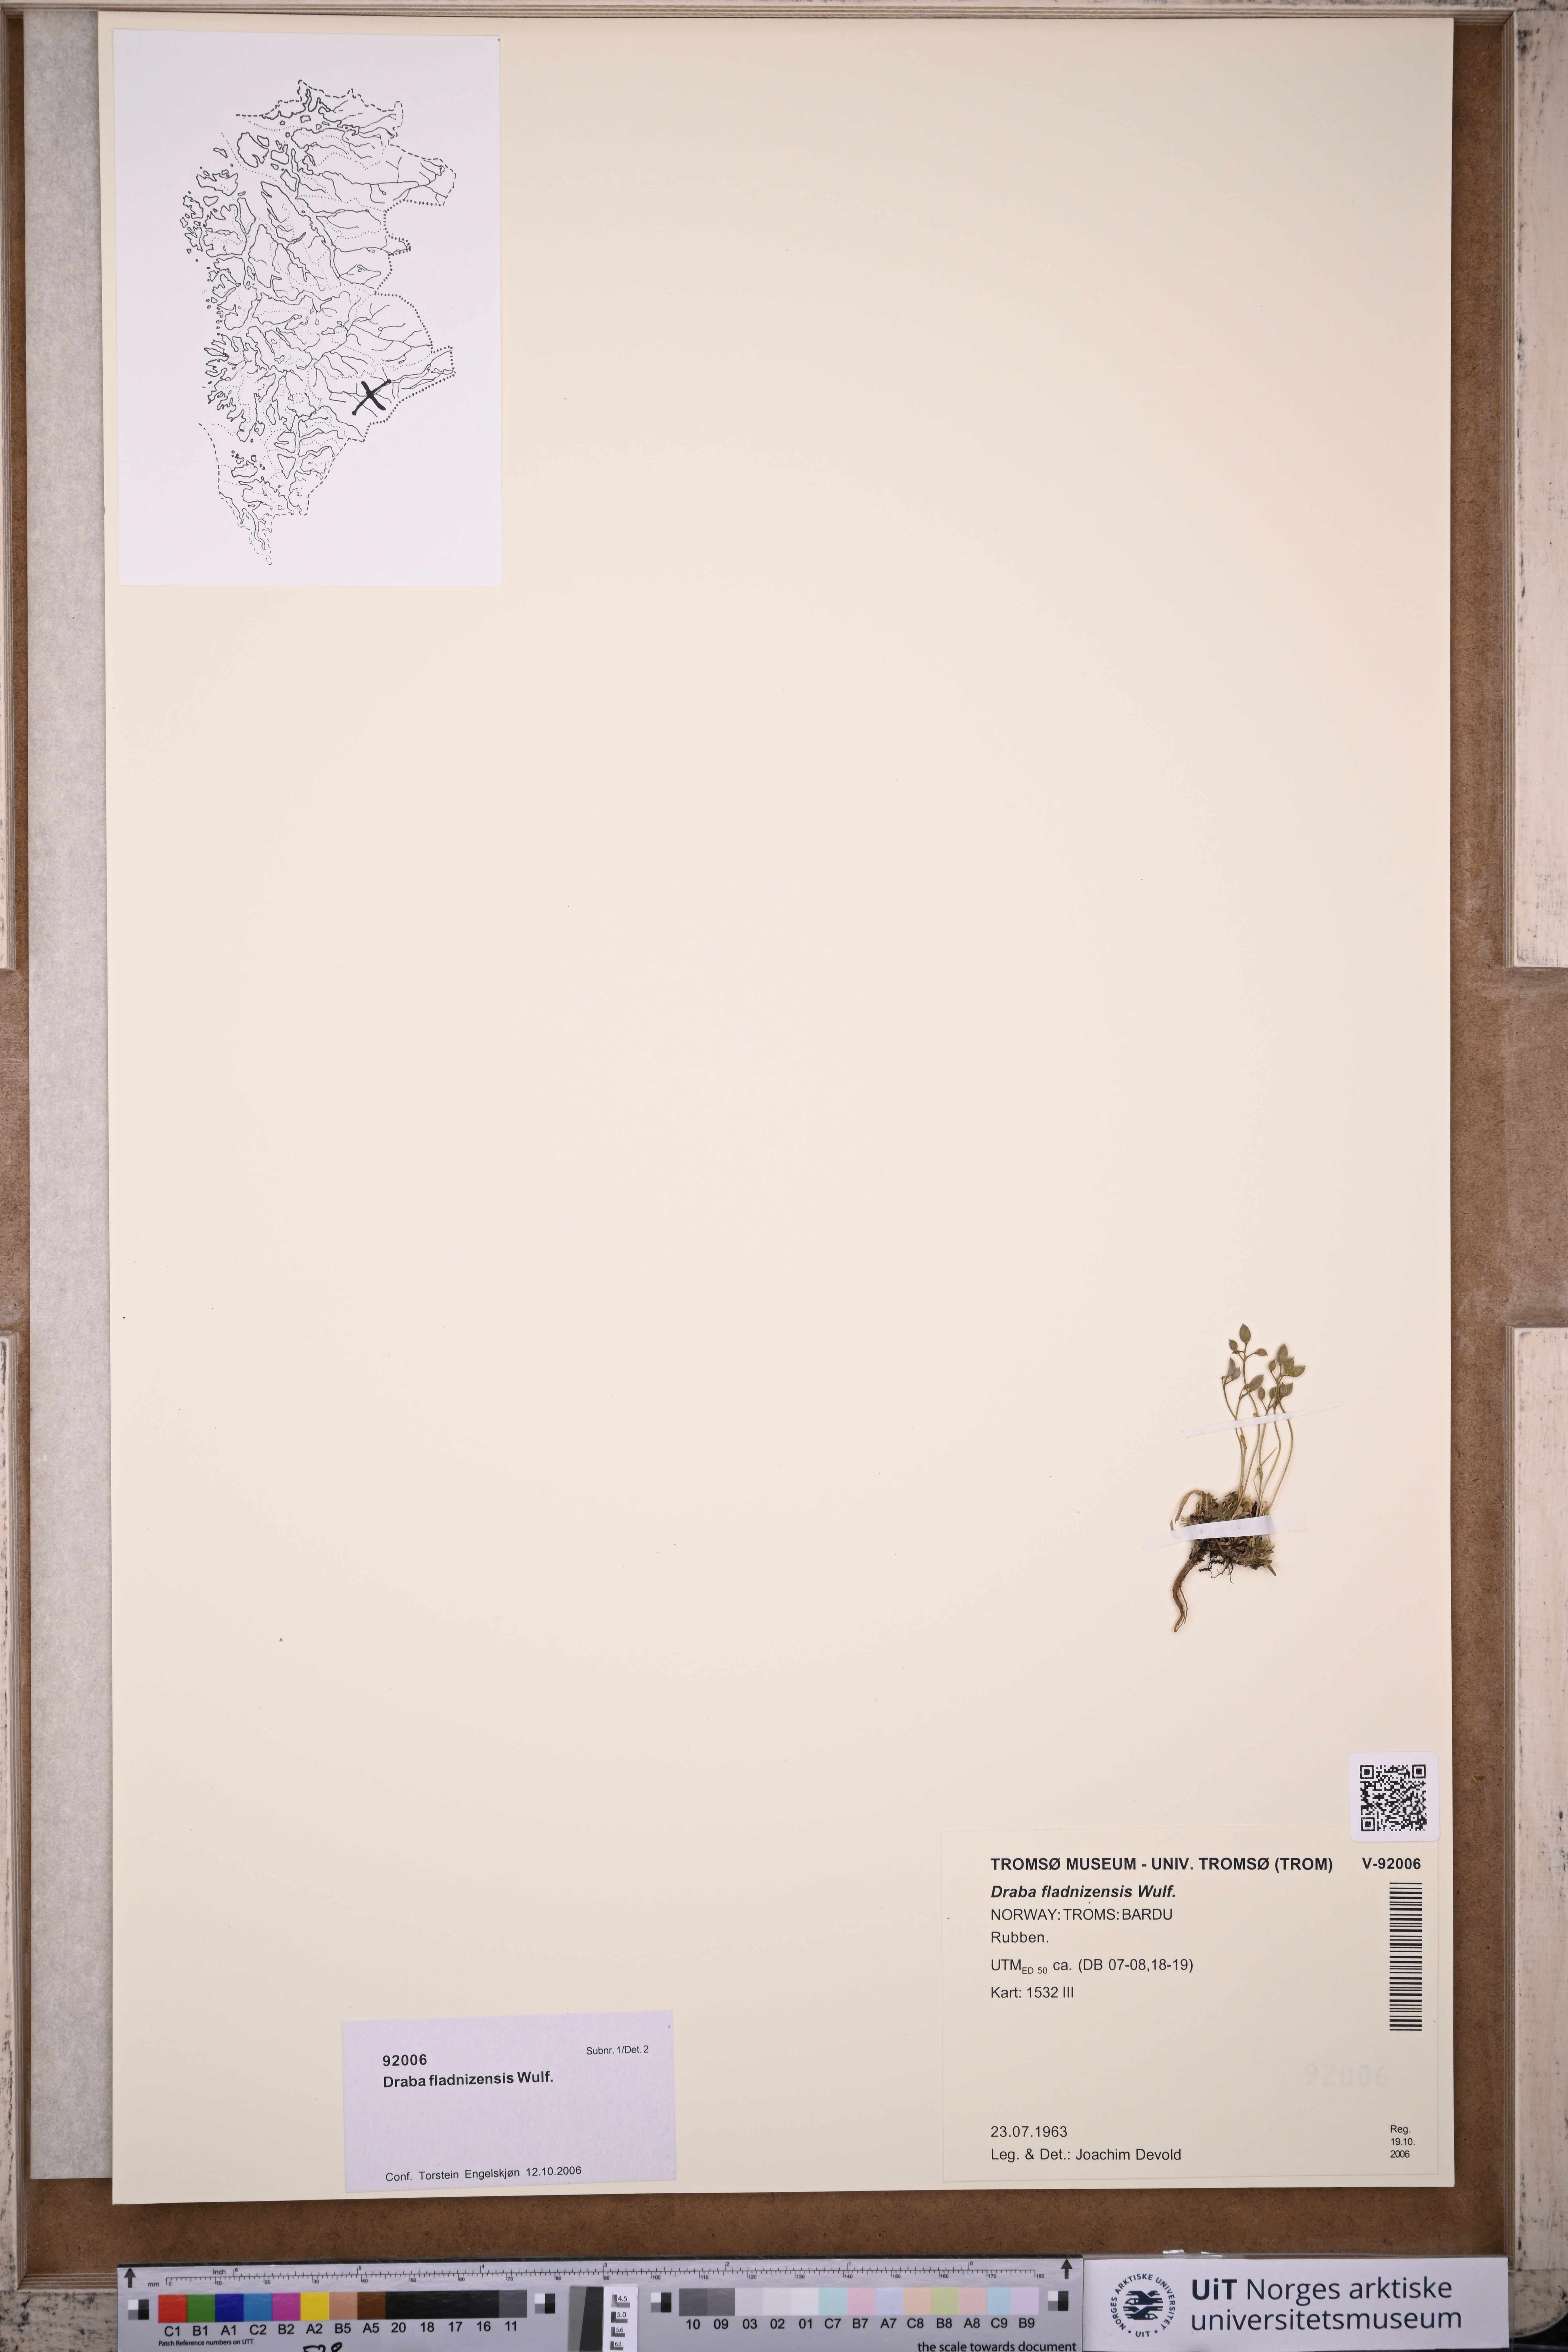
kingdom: Plantae
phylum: Tracheophyta
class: Magnoliopsida
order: Brassicales
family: Brassicaceae
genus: Draba
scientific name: Draba fladnizensis
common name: Austrian draba
